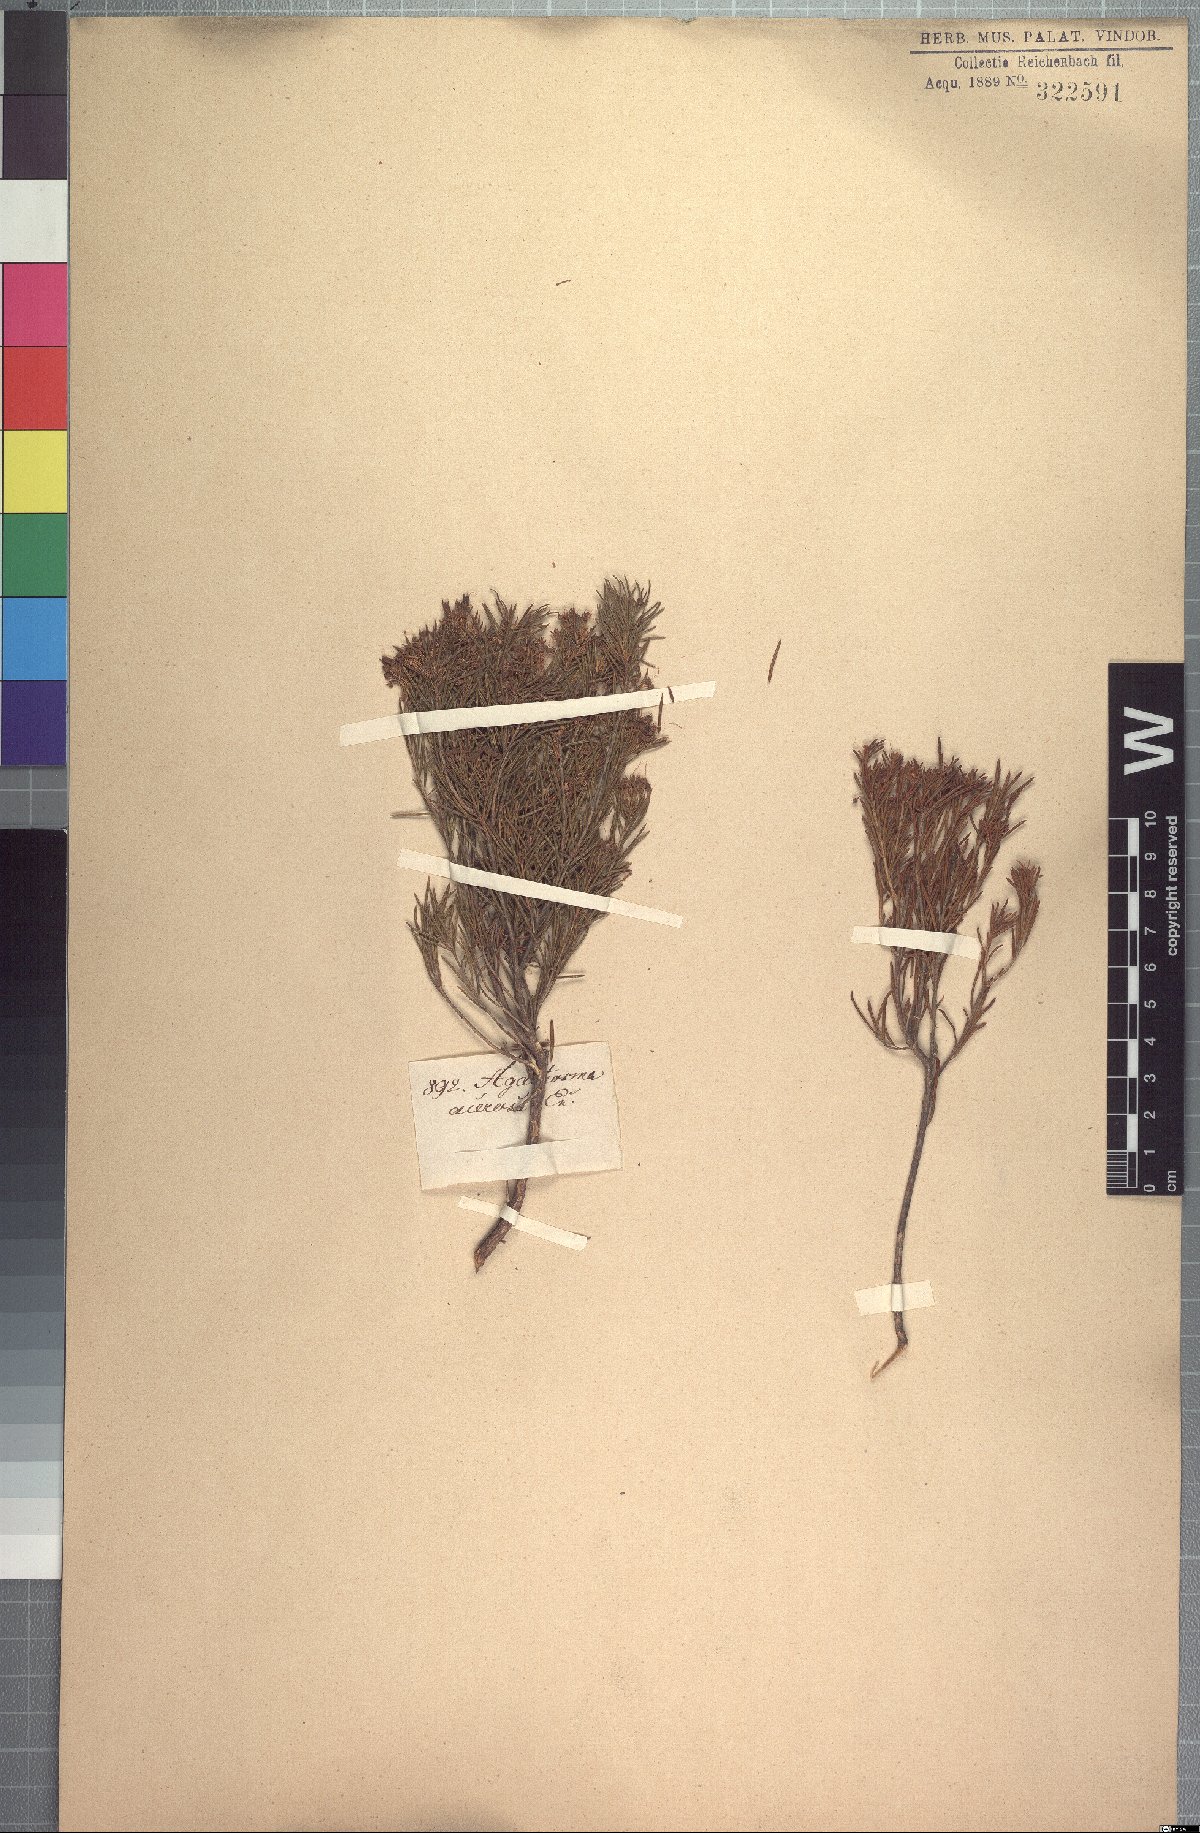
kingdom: Plantae
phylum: Tracheophyta
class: Magnoliopsida
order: Sapindales
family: Rutaceae
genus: Agathosma
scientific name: Agathosma bisulca
